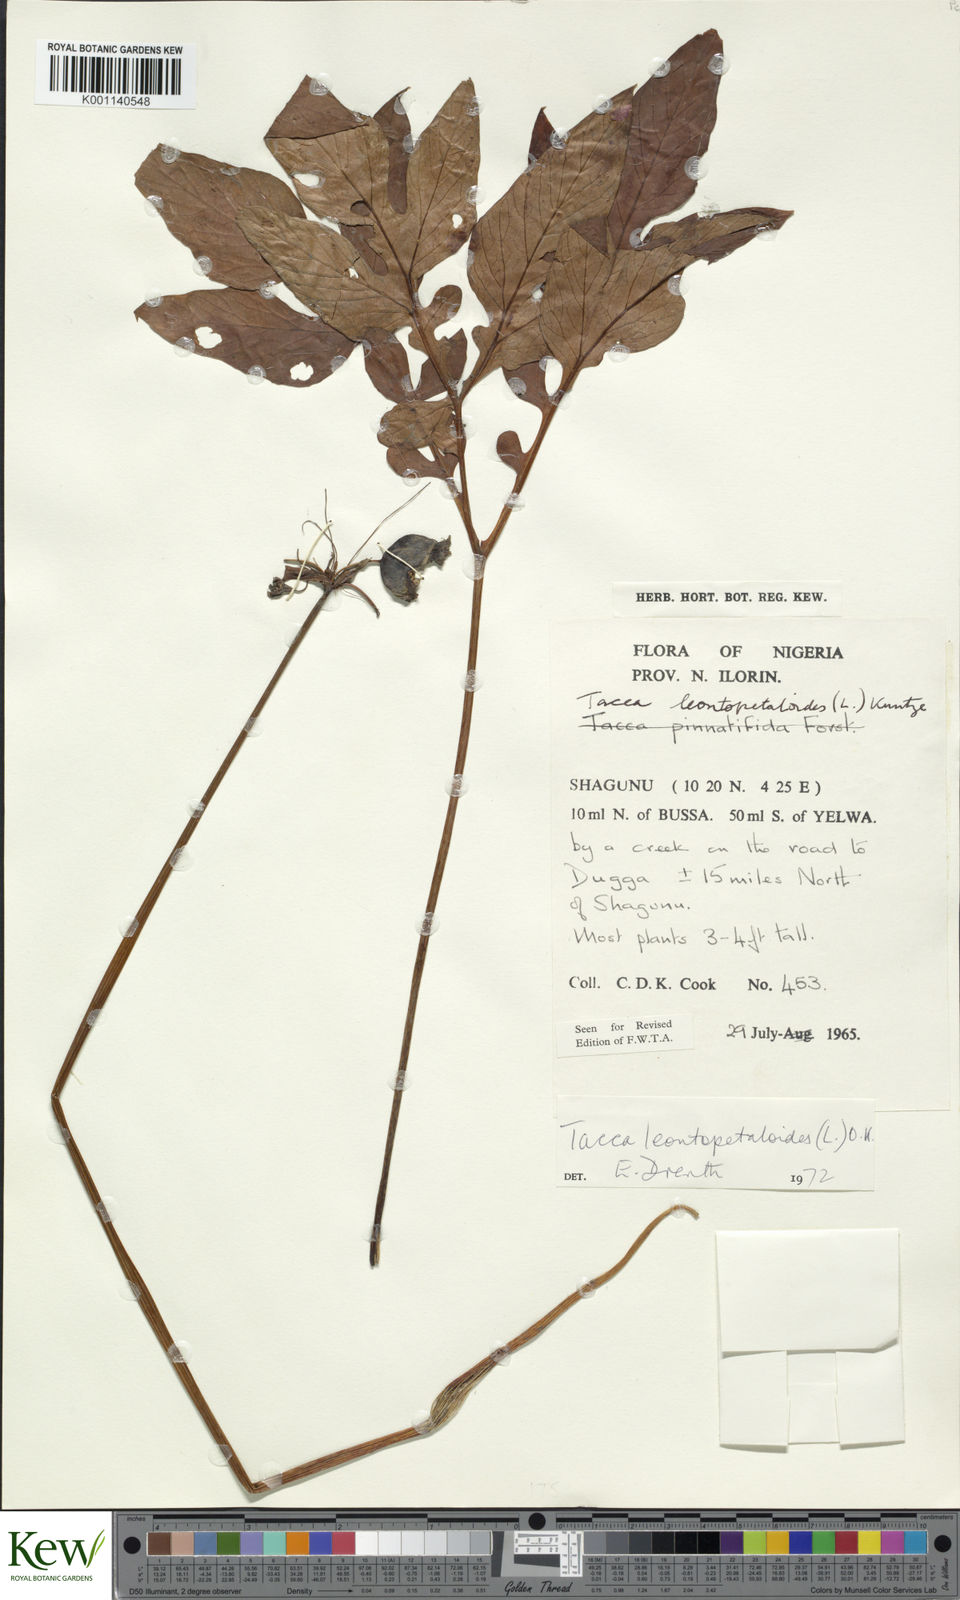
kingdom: Plantae
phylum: Tracheophyta
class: Liliopsida
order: Dioscoreales
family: Dioscoreaceae
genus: Tacca
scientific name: Tacca leontopetaloides
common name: Arrowroot
